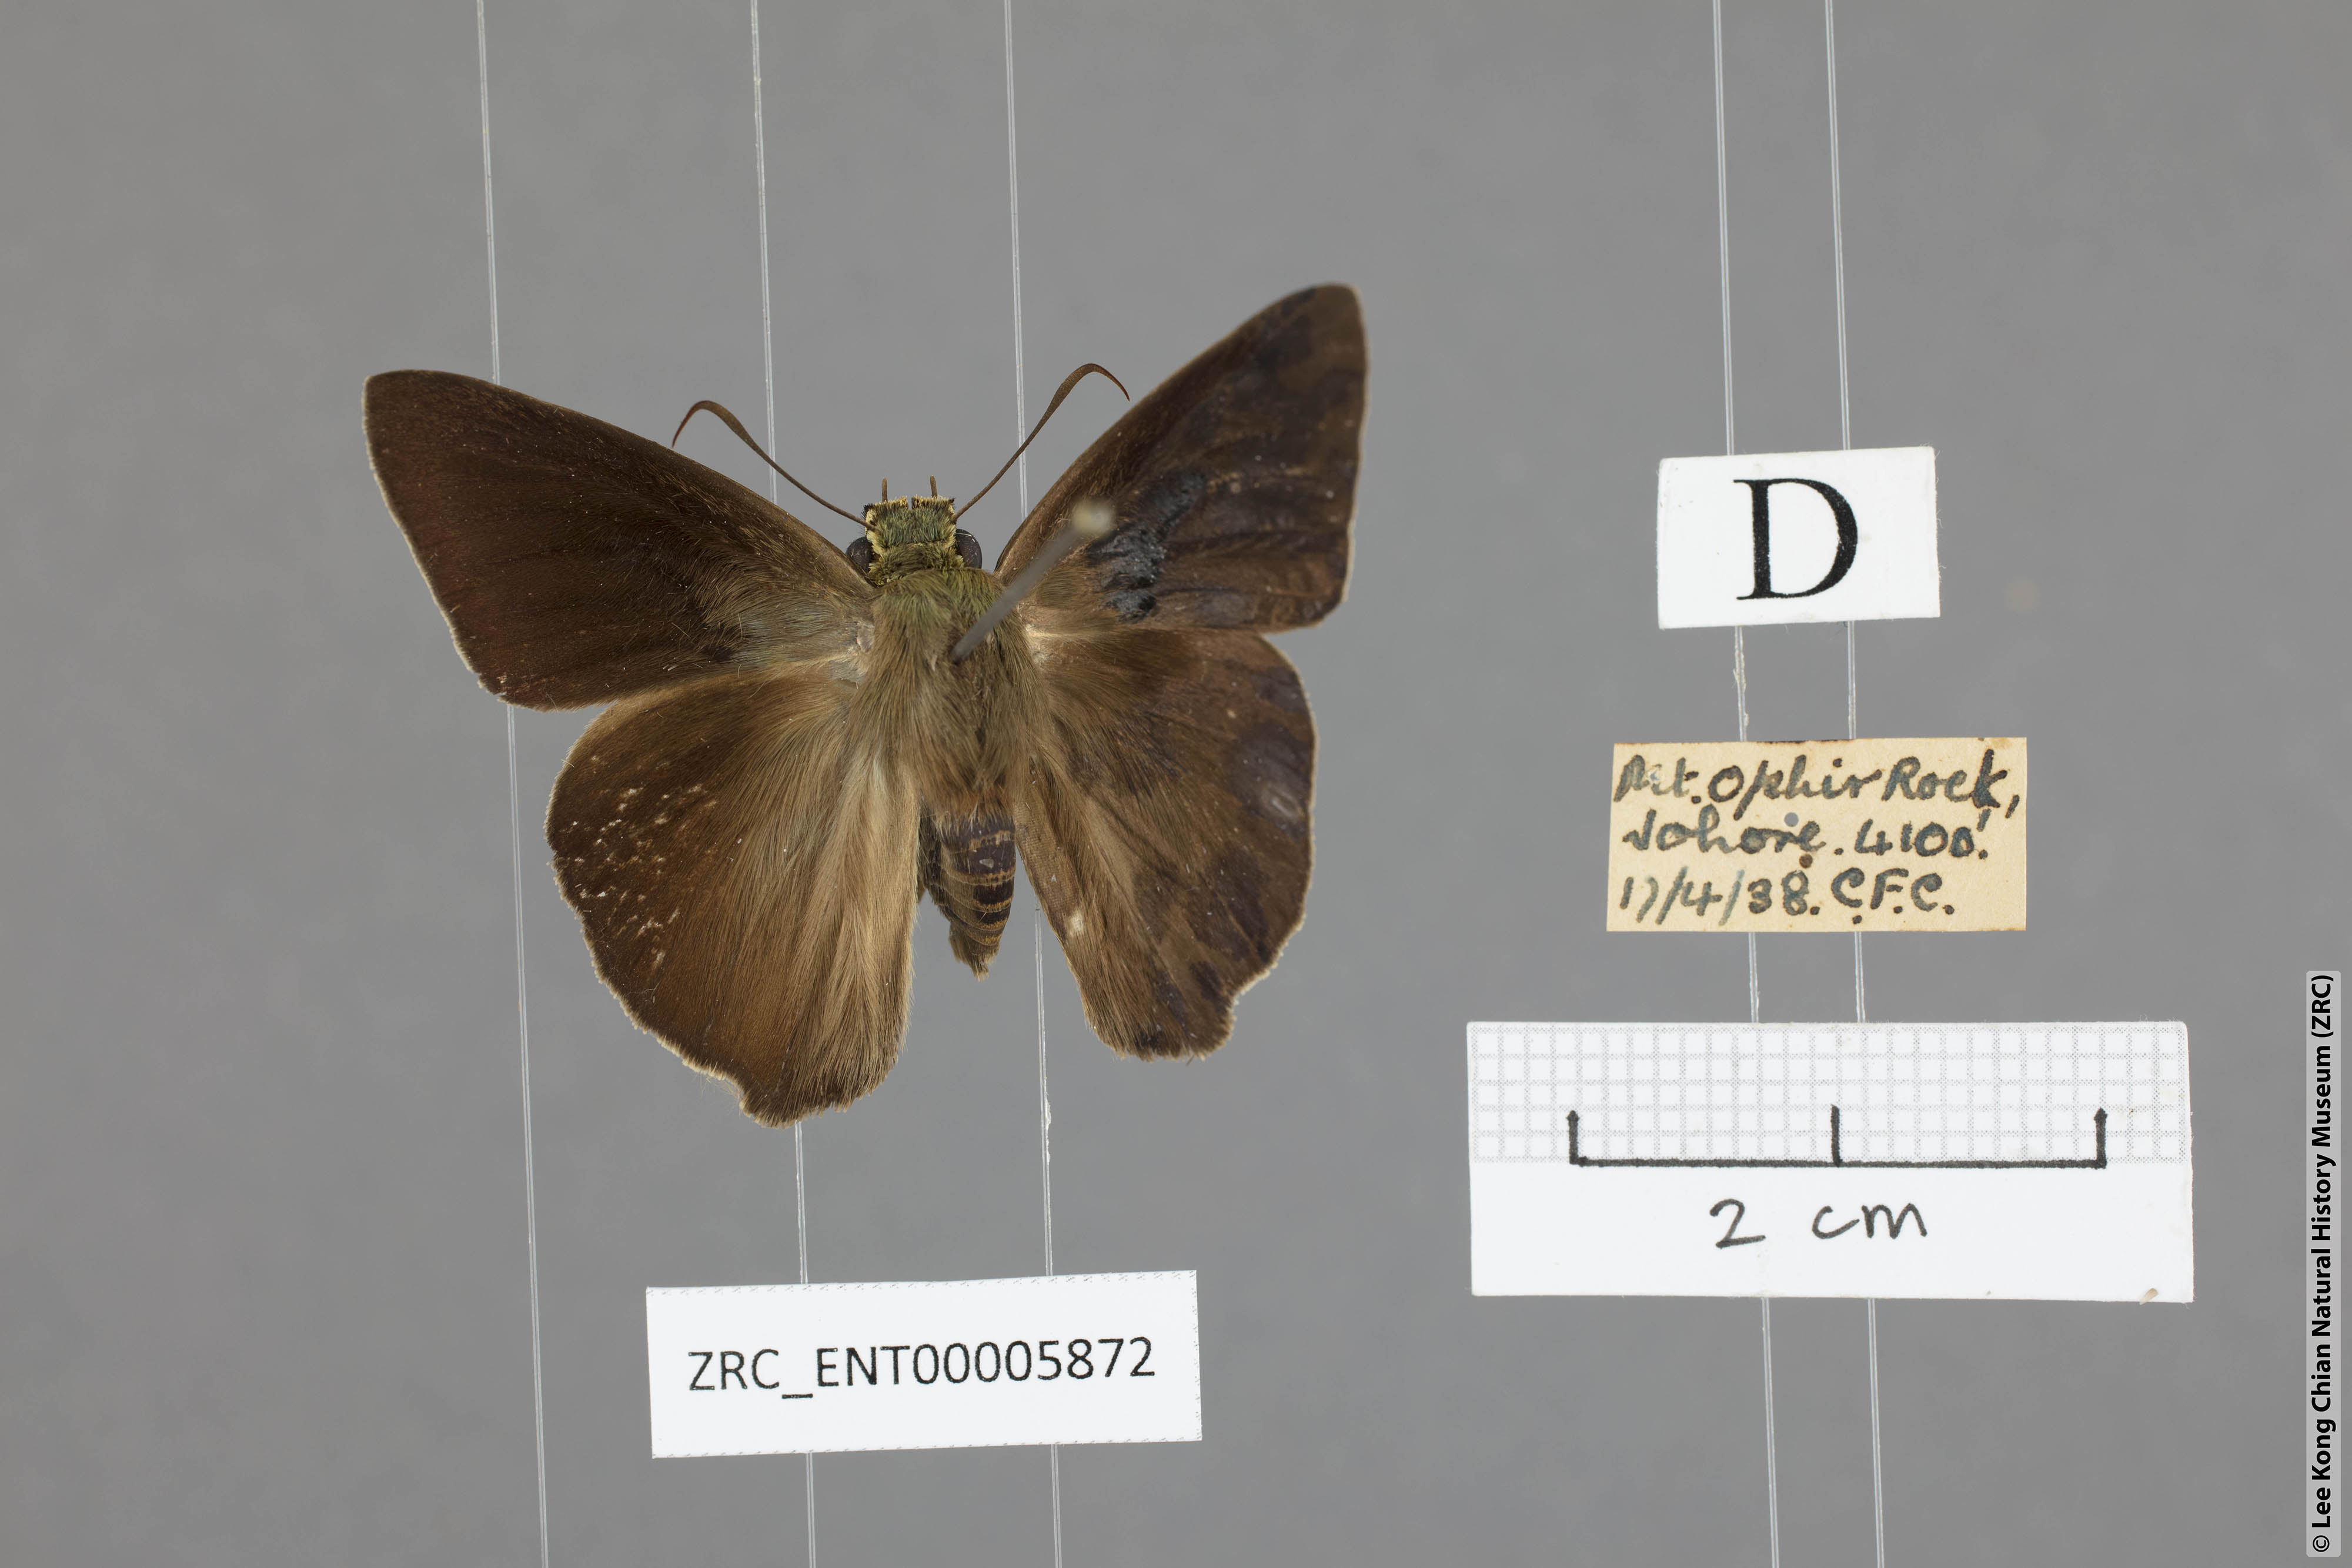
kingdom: Animalia
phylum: Arthropoda
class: Insecta
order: Lepidoptera
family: Hesperiidae
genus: Hasora
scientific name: Hasora chromus
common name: Common banded awl
